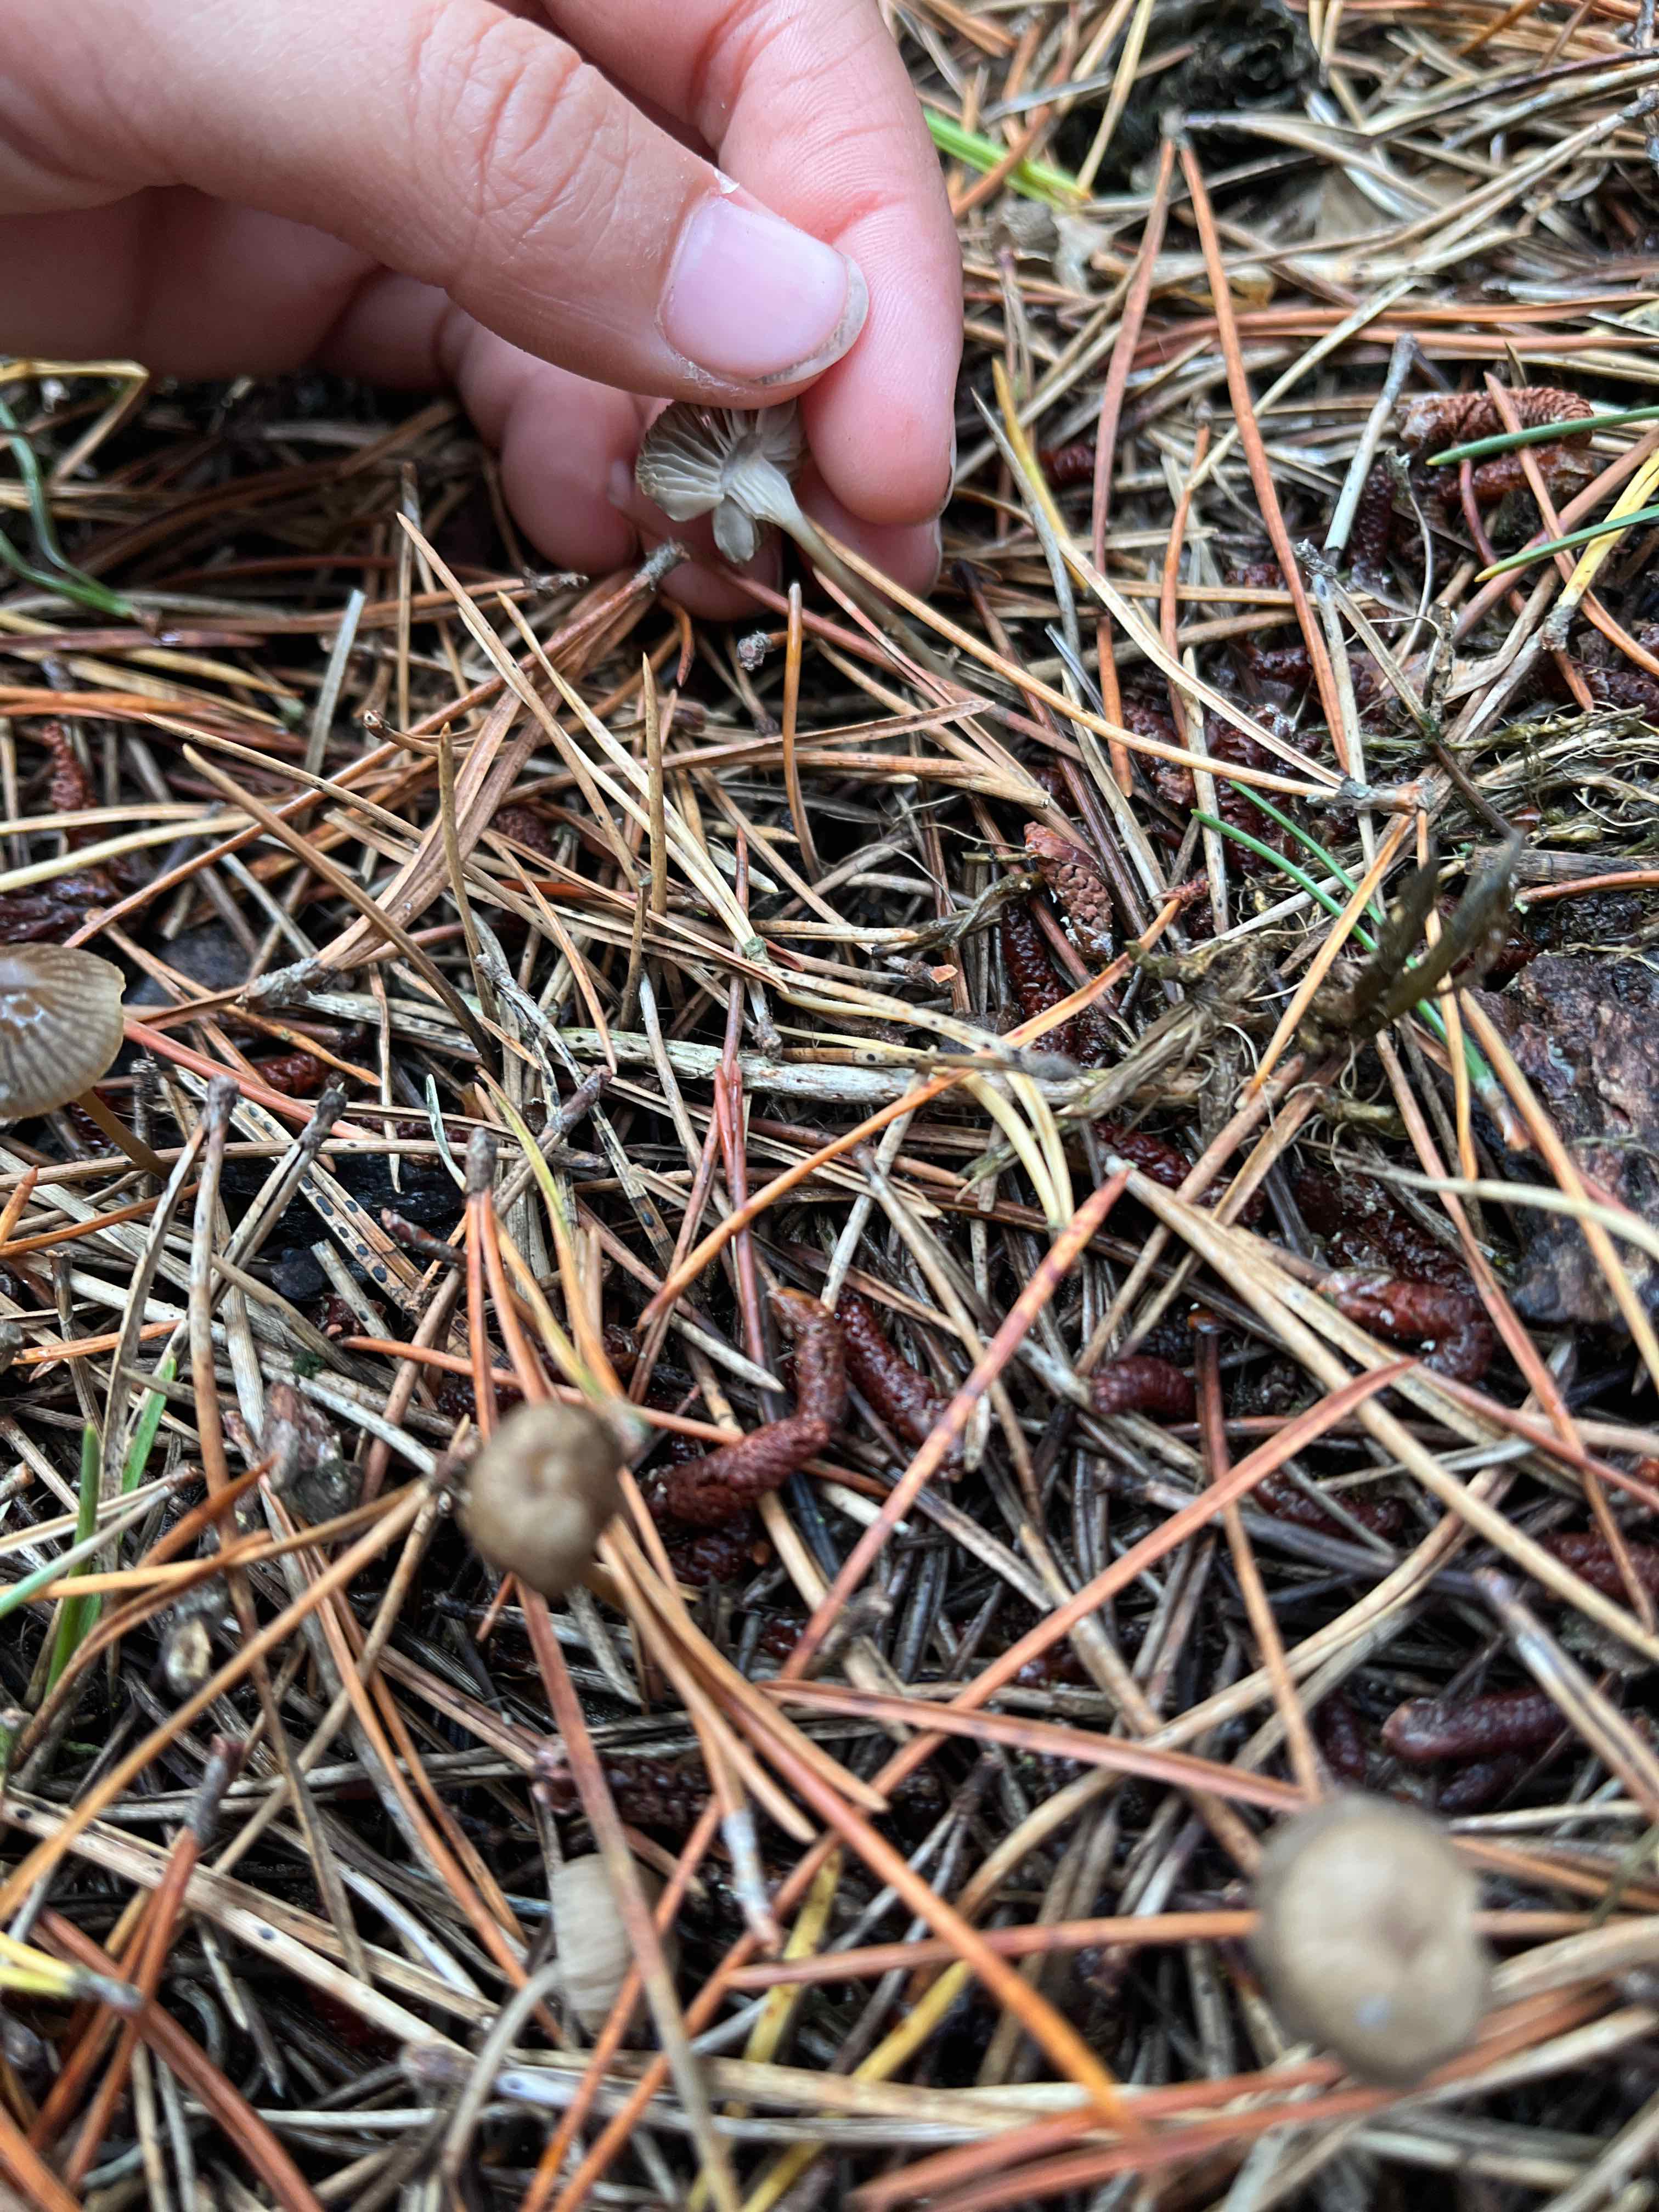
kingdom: Fungi
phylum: Basidiomycota
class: Agaricomycetes
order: Agaricales
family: Mycenaceae
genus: Mycena
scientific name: Mycena
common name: huesvamp
